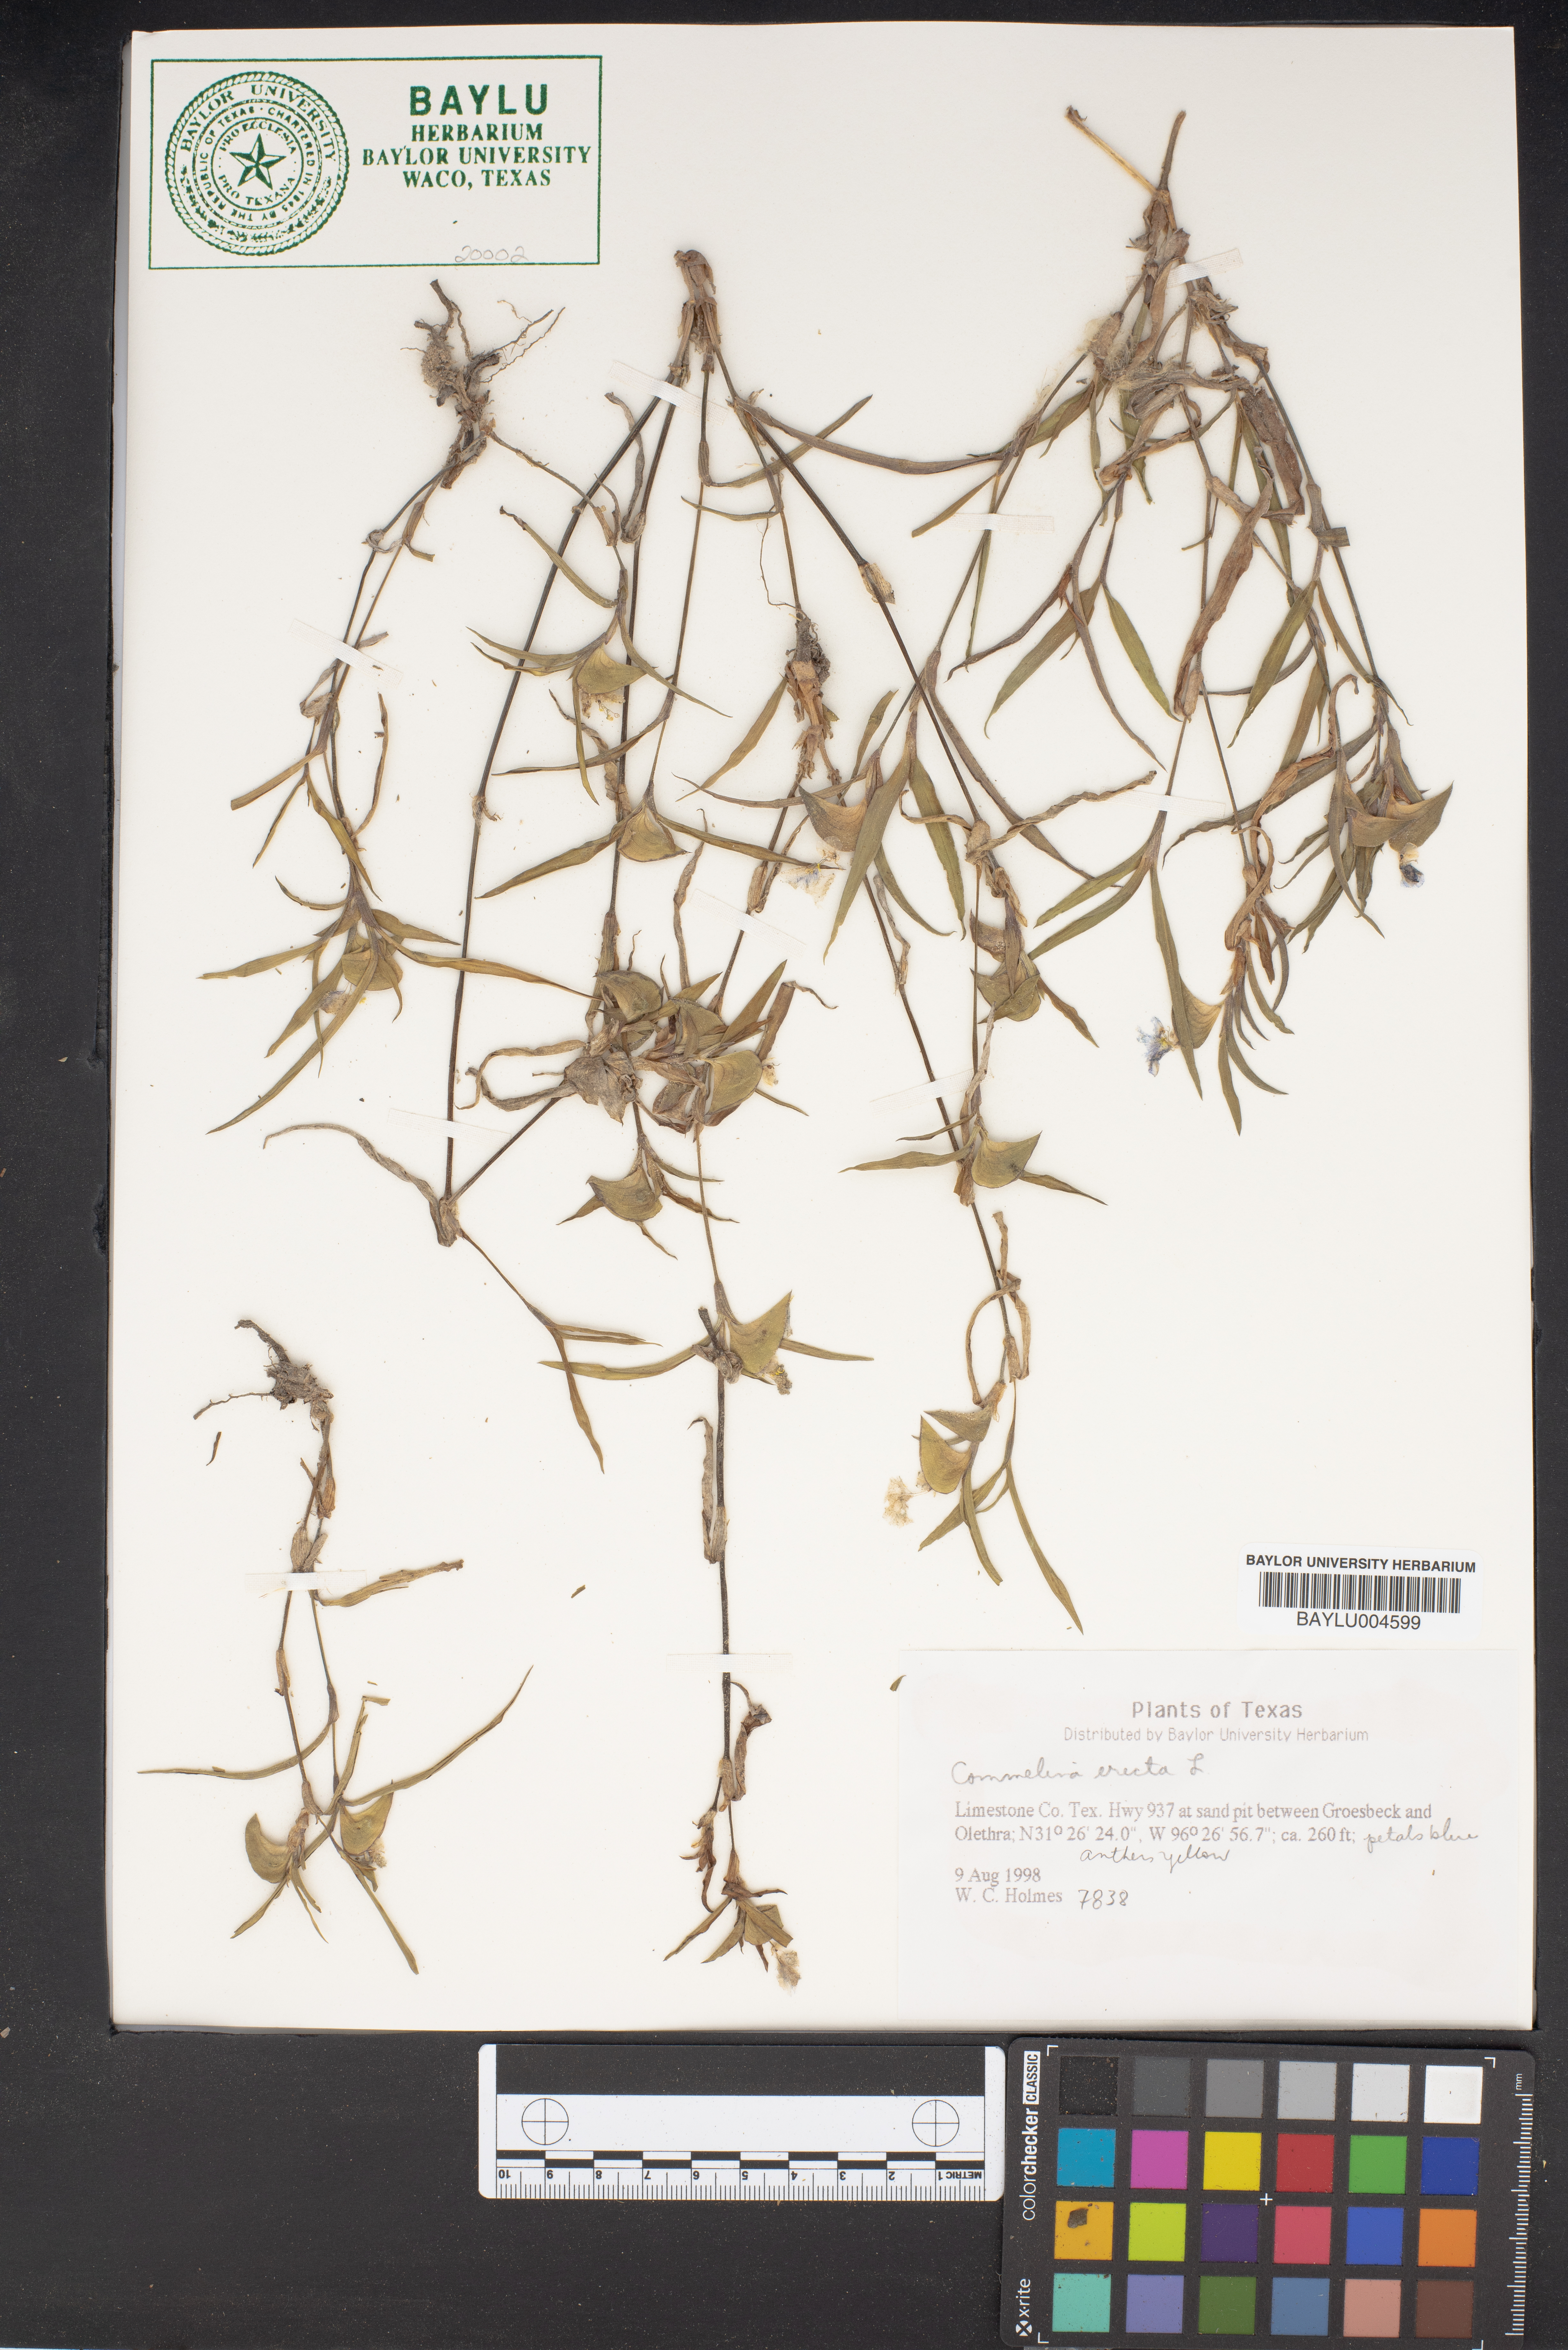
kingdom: Plantae
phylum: Tracheophyta
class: Liliopsida
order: Commelinales
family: Commelinaceae
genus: Commelina
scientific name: Commelina erecta
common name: Blousel blommetjie
